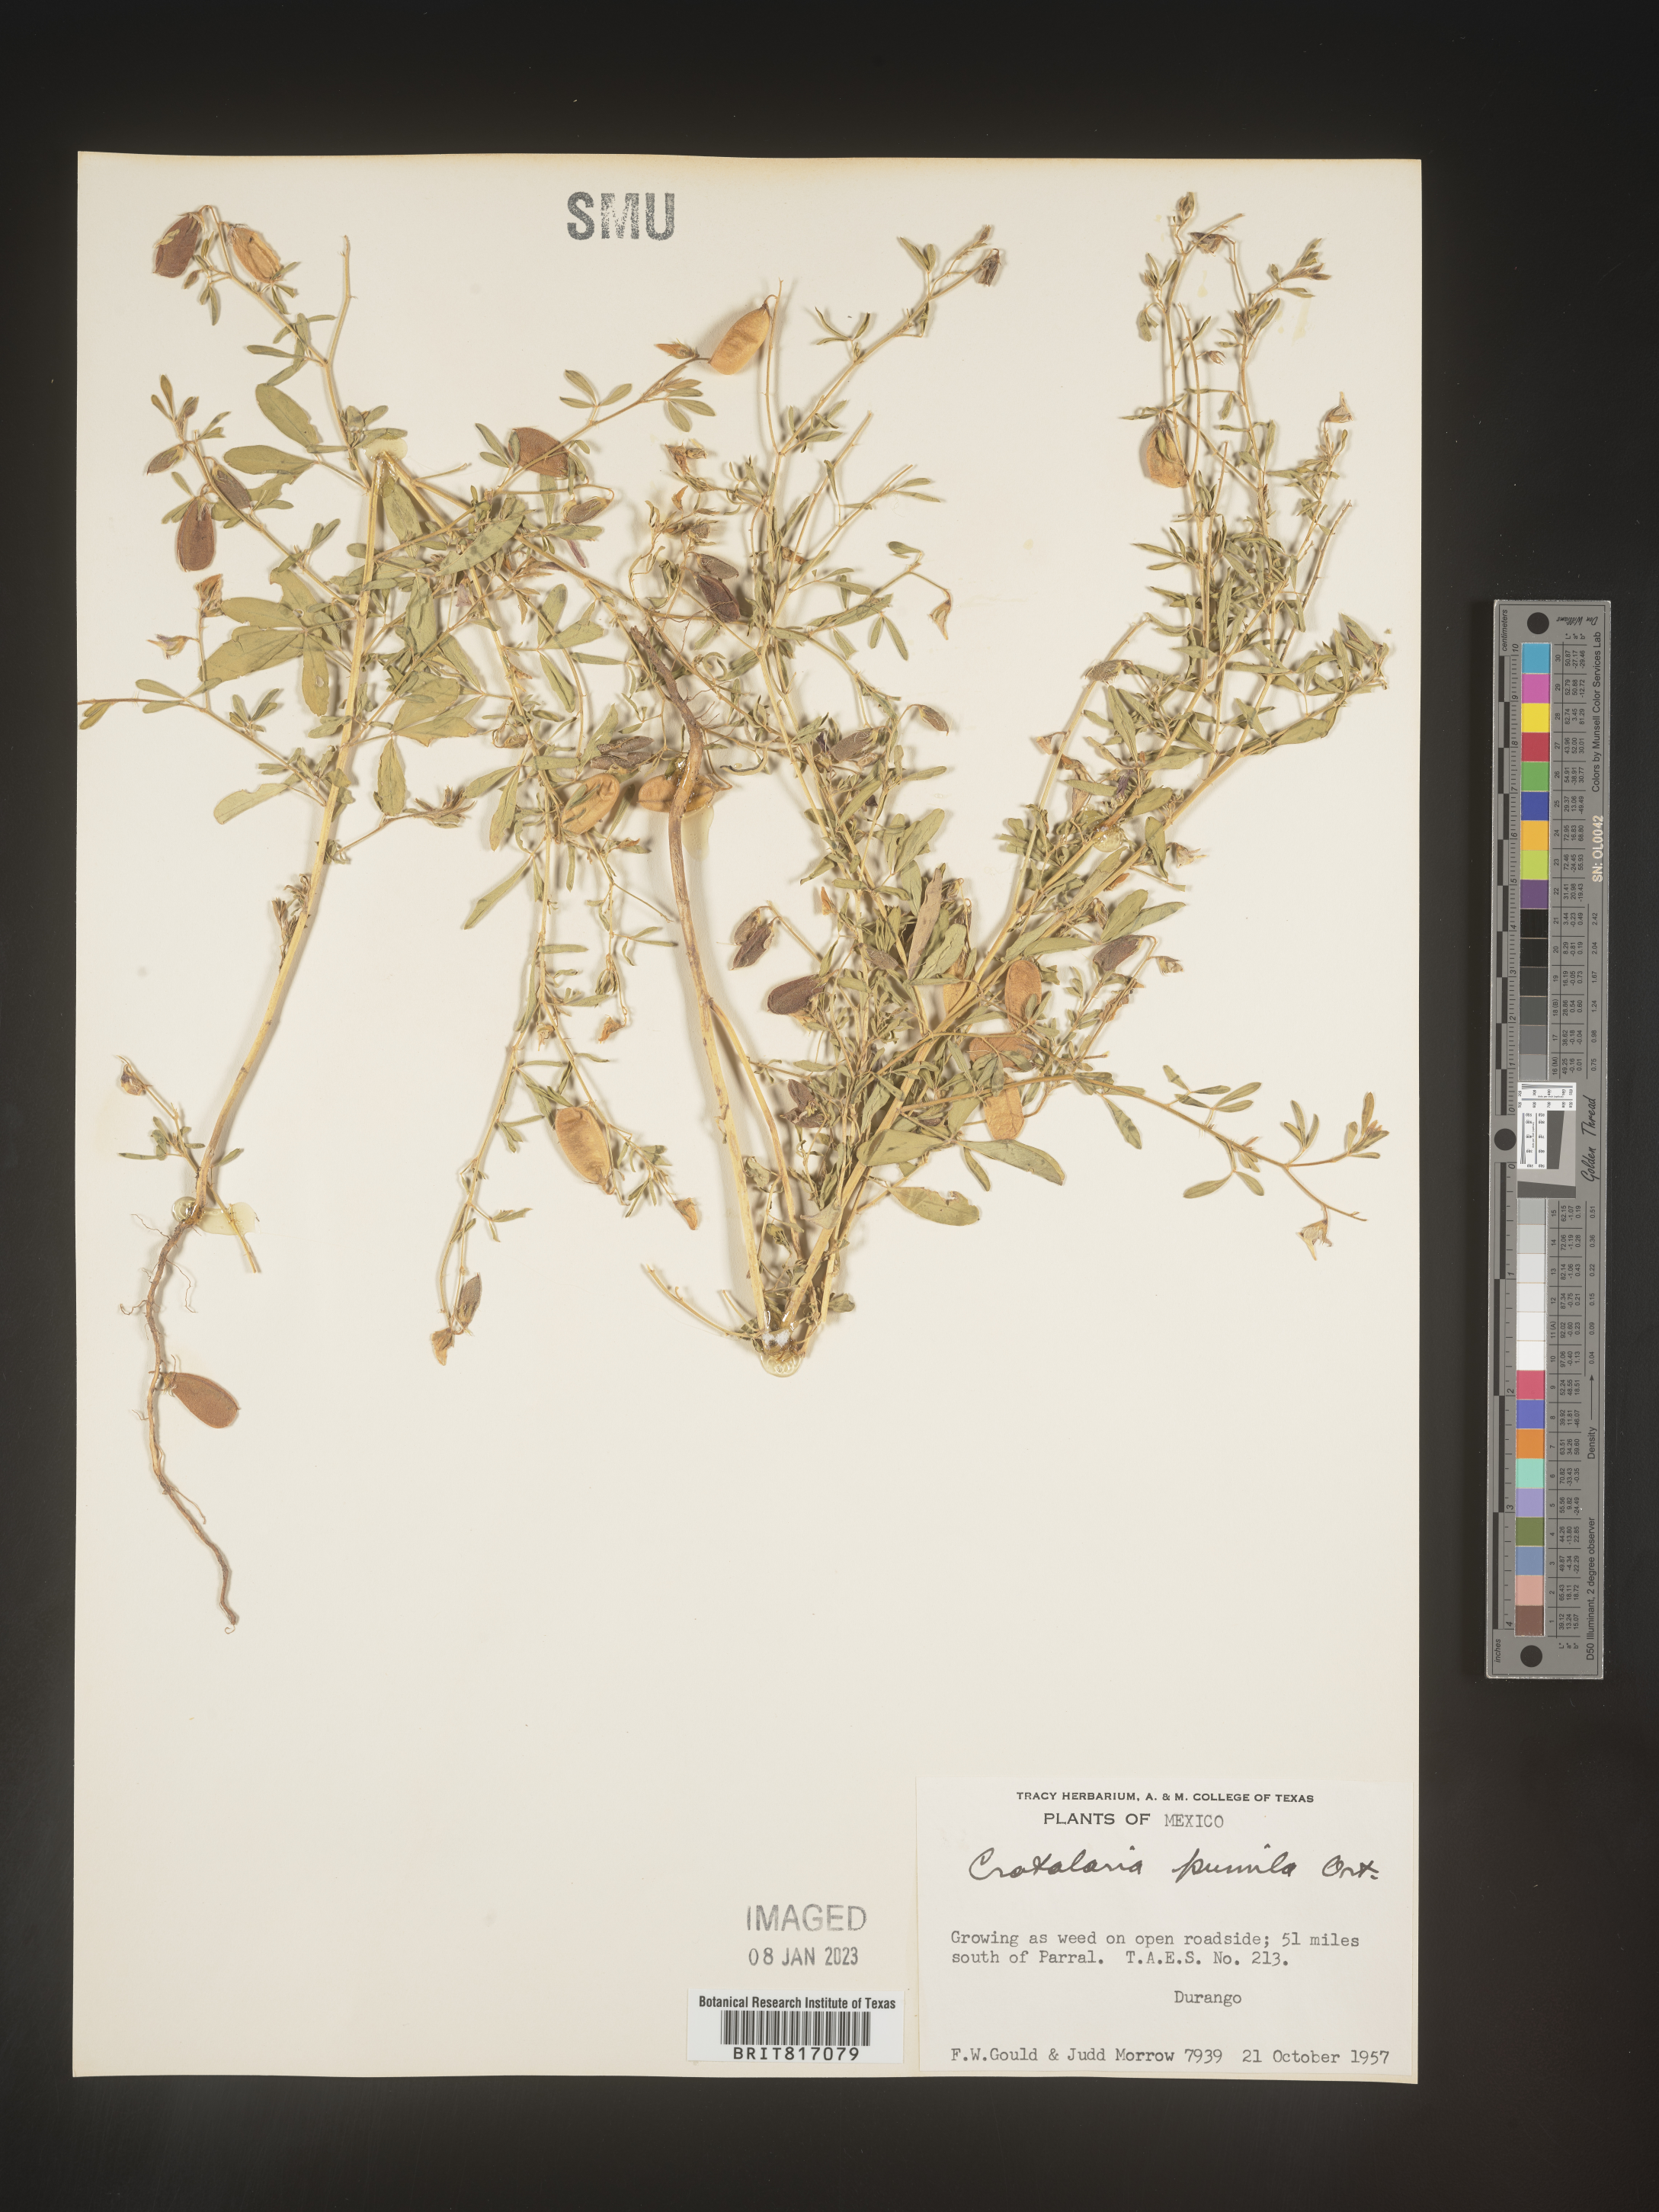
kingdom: Plantae
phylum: Tracheophyta
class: Magnoliopsida
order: Fabales
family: Fabaceae
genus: Crotalaria
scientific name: Crotalaria
